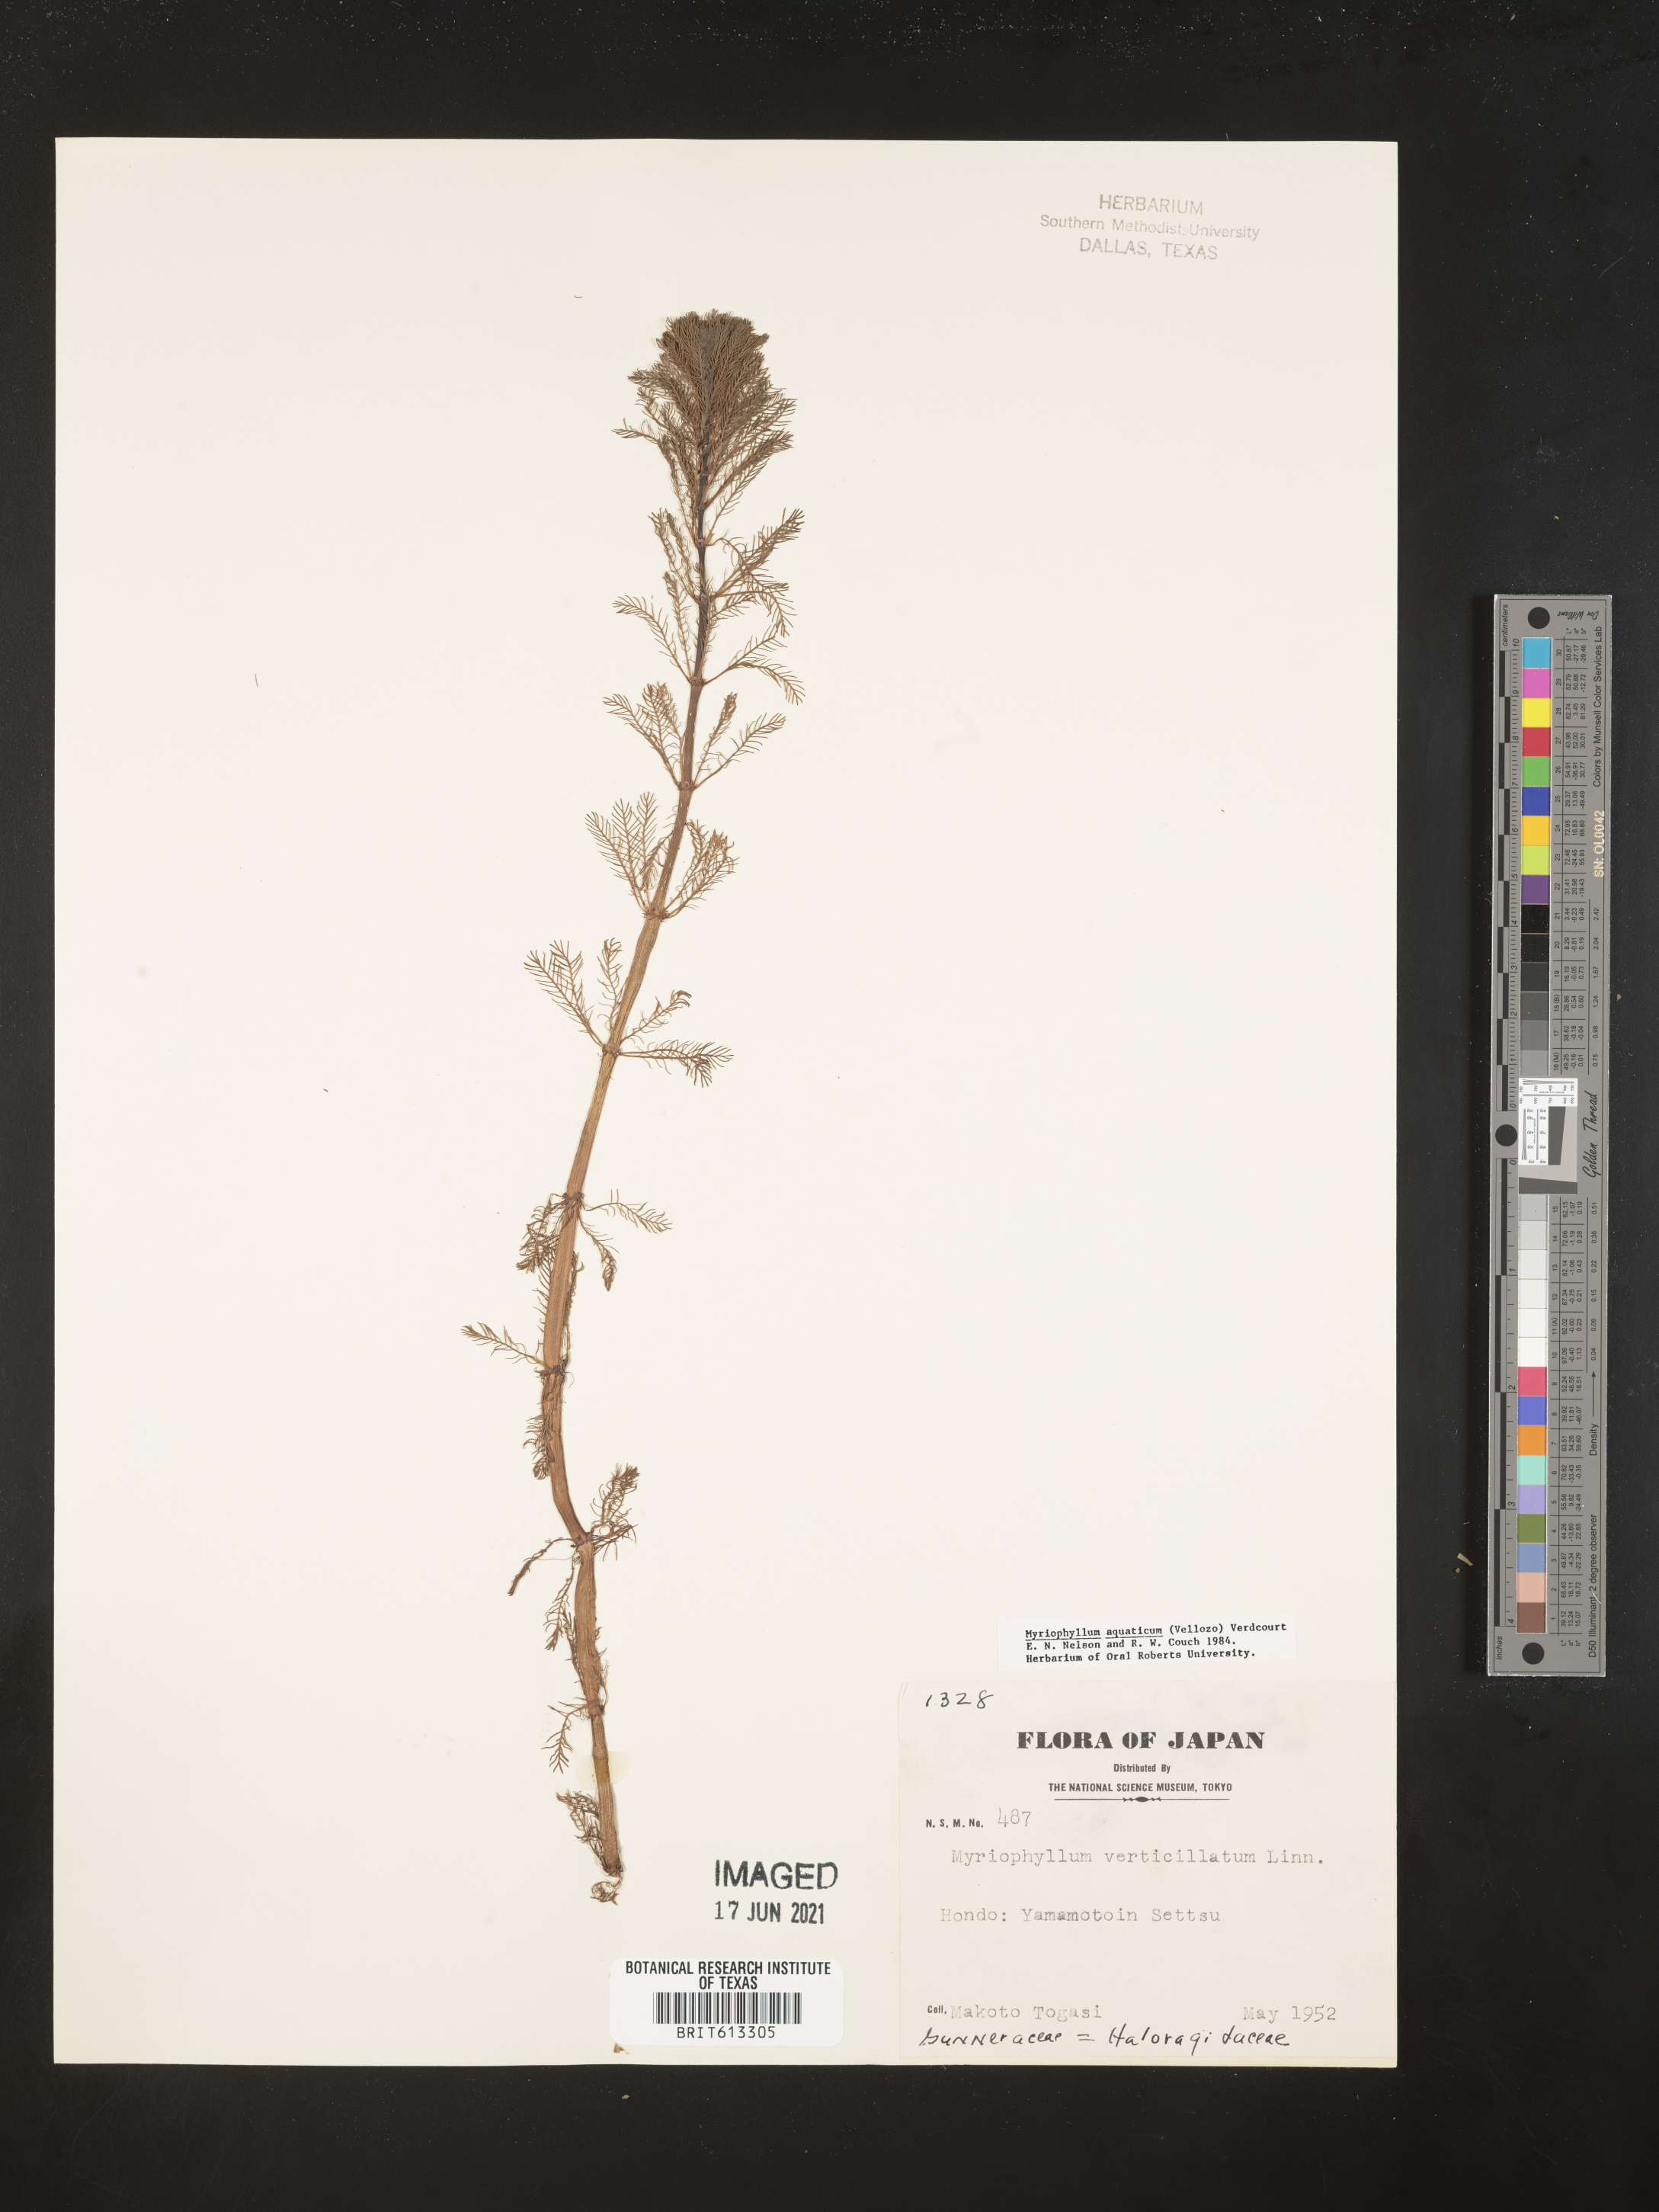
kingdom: Plantae
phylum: Tracheophyta
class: Magnoliopsida
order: Saxifragales
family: Haloragaceae
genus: Myriophyllum
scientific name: Myriophyllum aquaticum
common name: Parrot's feather
